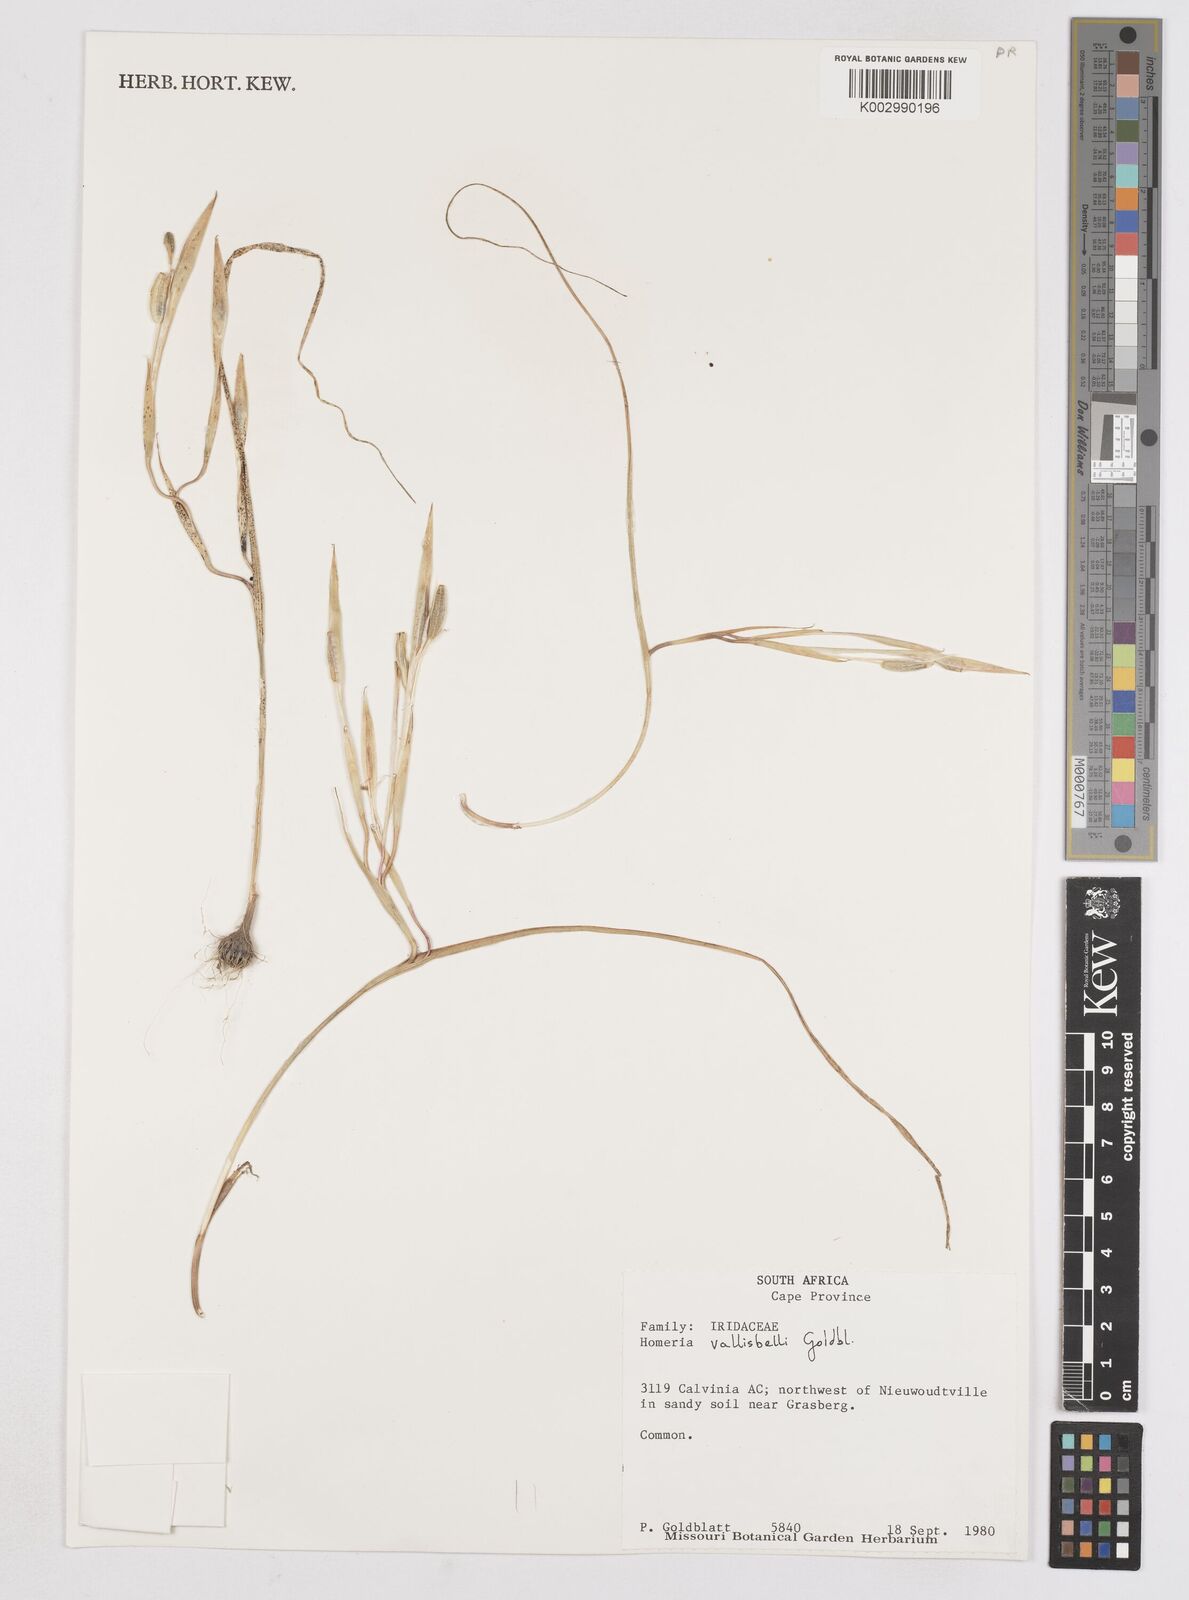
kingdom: Plantae
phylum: Tracheophyta
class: Liliopsida
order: Asparagales
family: Iridaceae
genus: Moraea
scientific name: Moraea vallisavium
